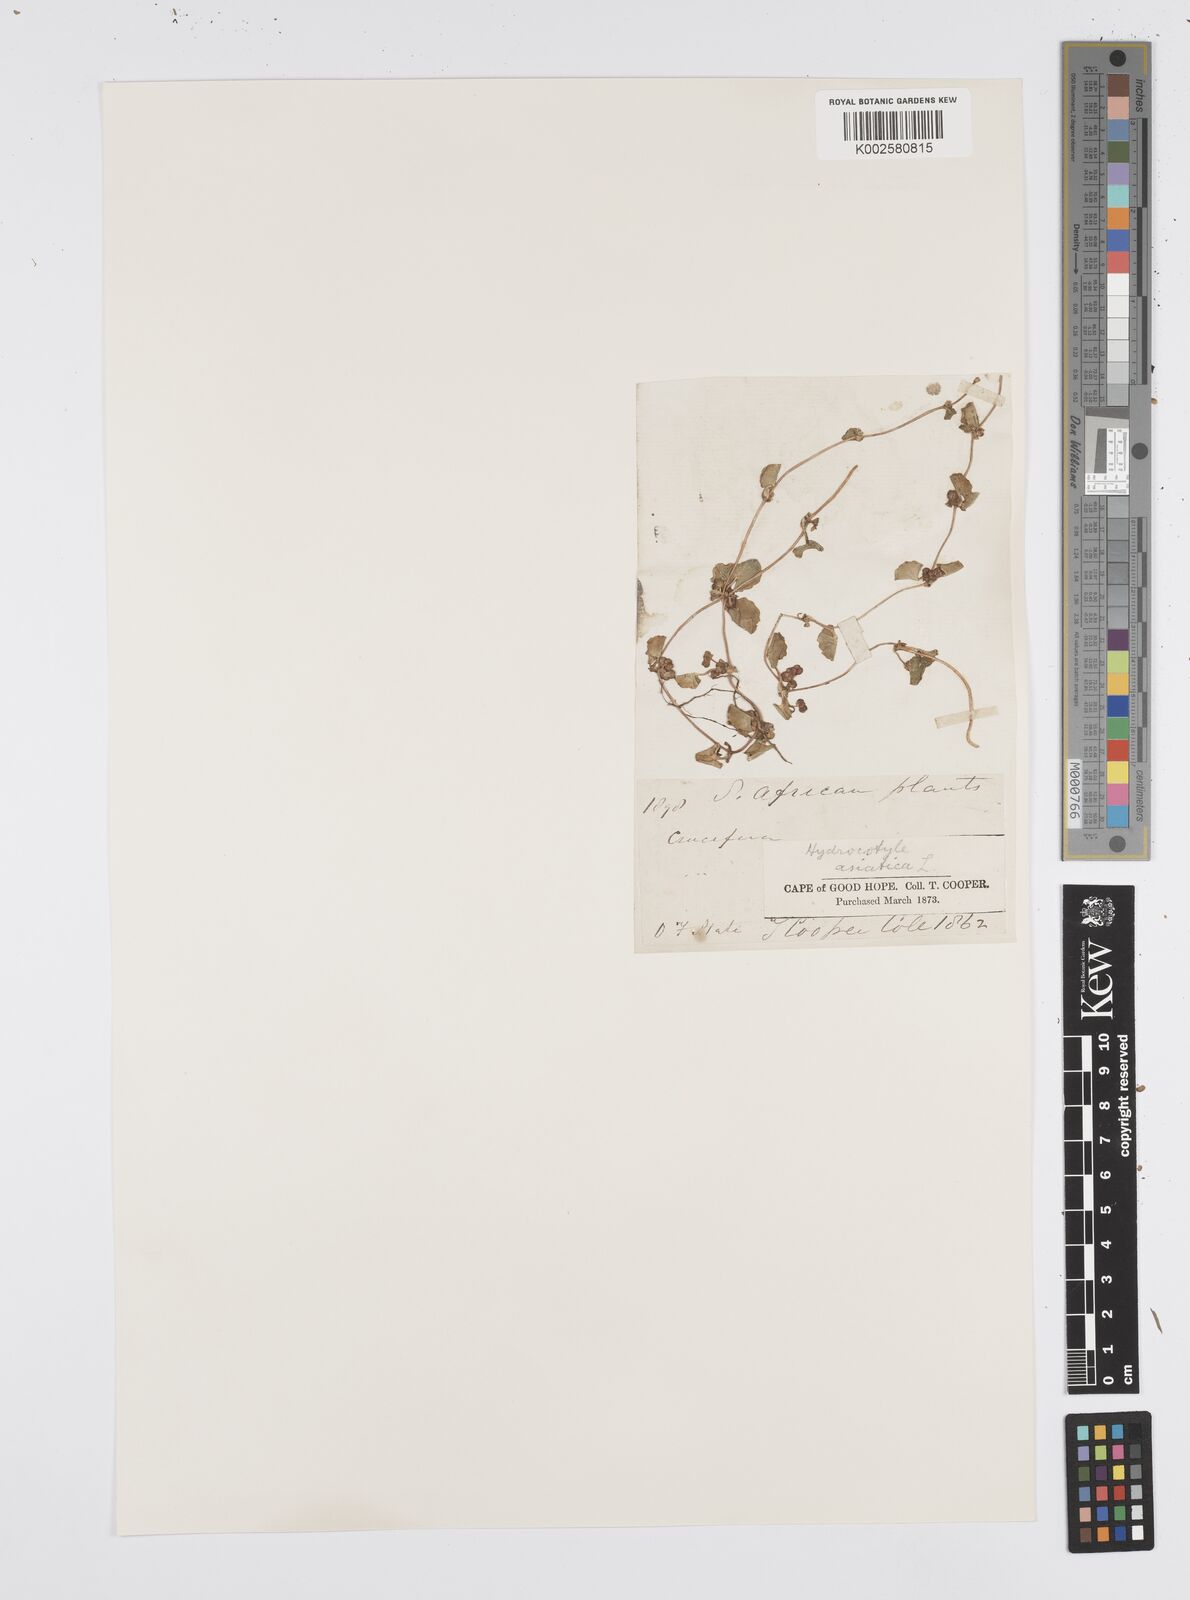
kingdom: Plantae
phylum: Tracheophyta
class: Magnoliopsida
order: Apiales
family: Apiaceae
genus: Centella
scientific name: Centella coriacea
